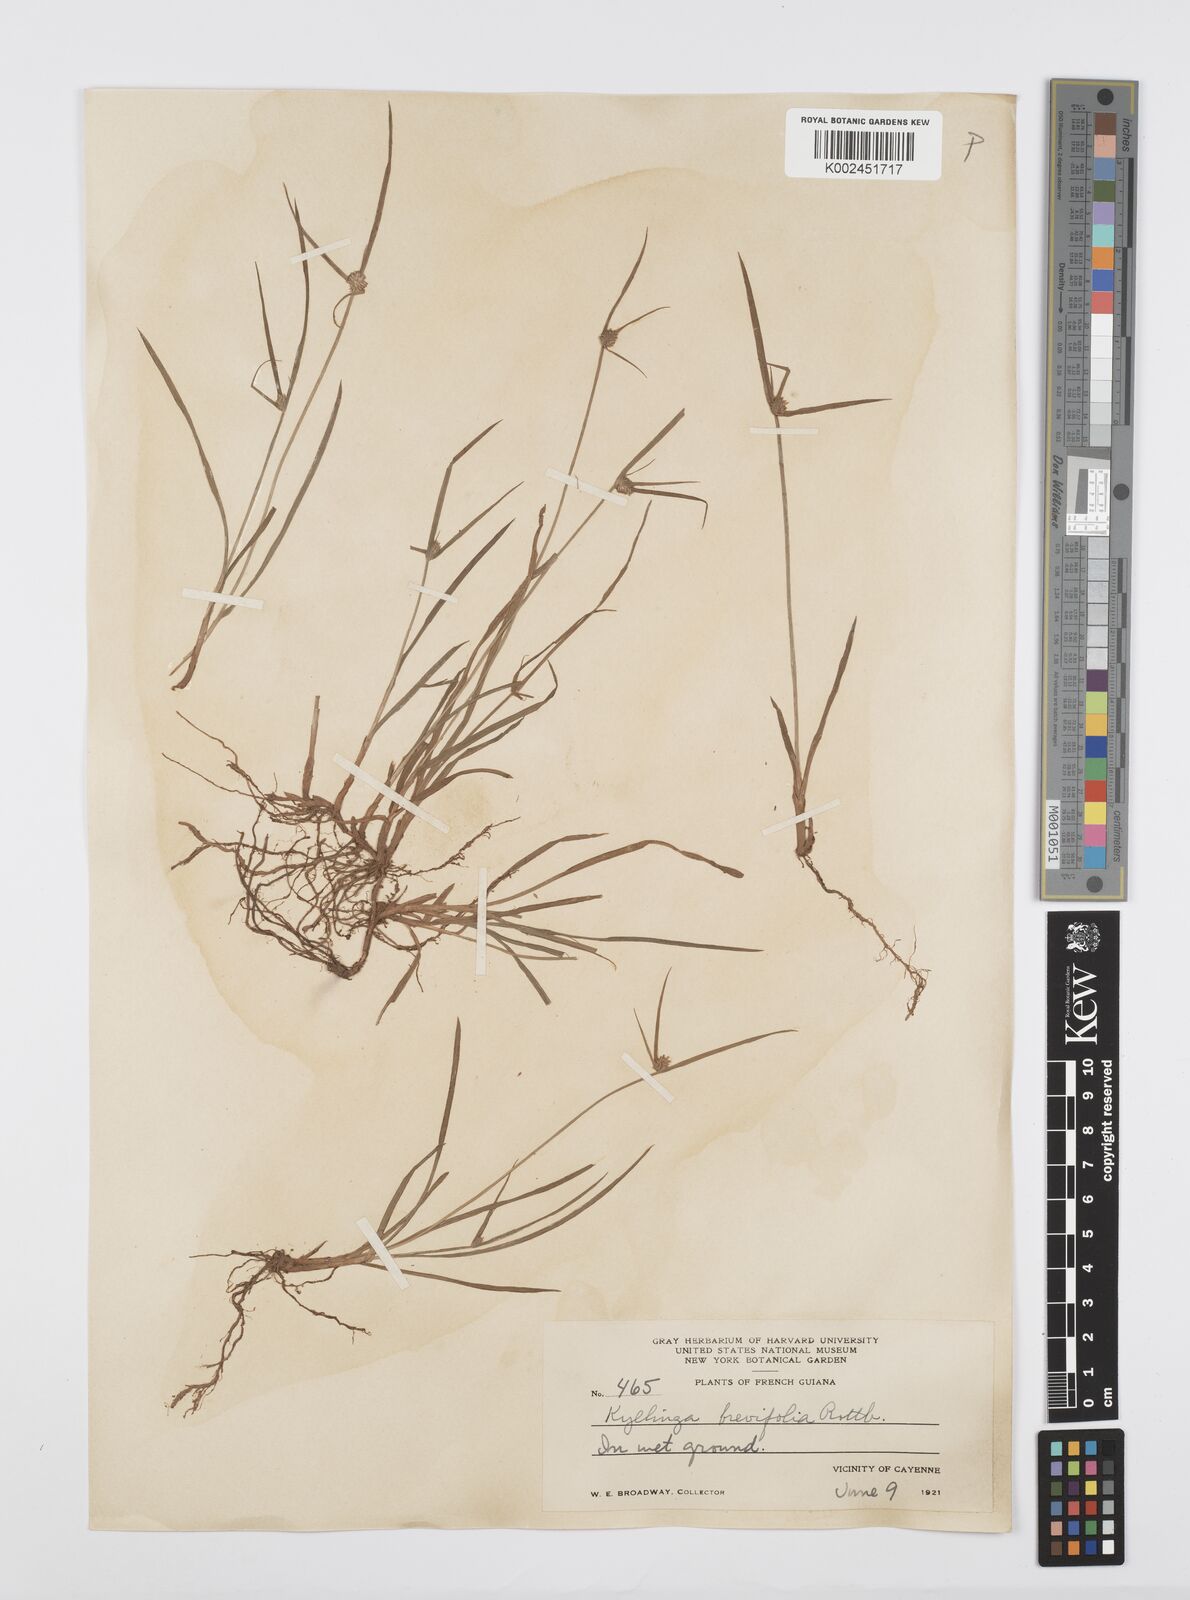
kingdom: Plantae
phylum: Tracheophyta
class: Liliopsida
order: Poales
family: Cyperaceae
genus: Cyperus
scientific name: Cyperus brevifolius
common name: Globe kyllinga
